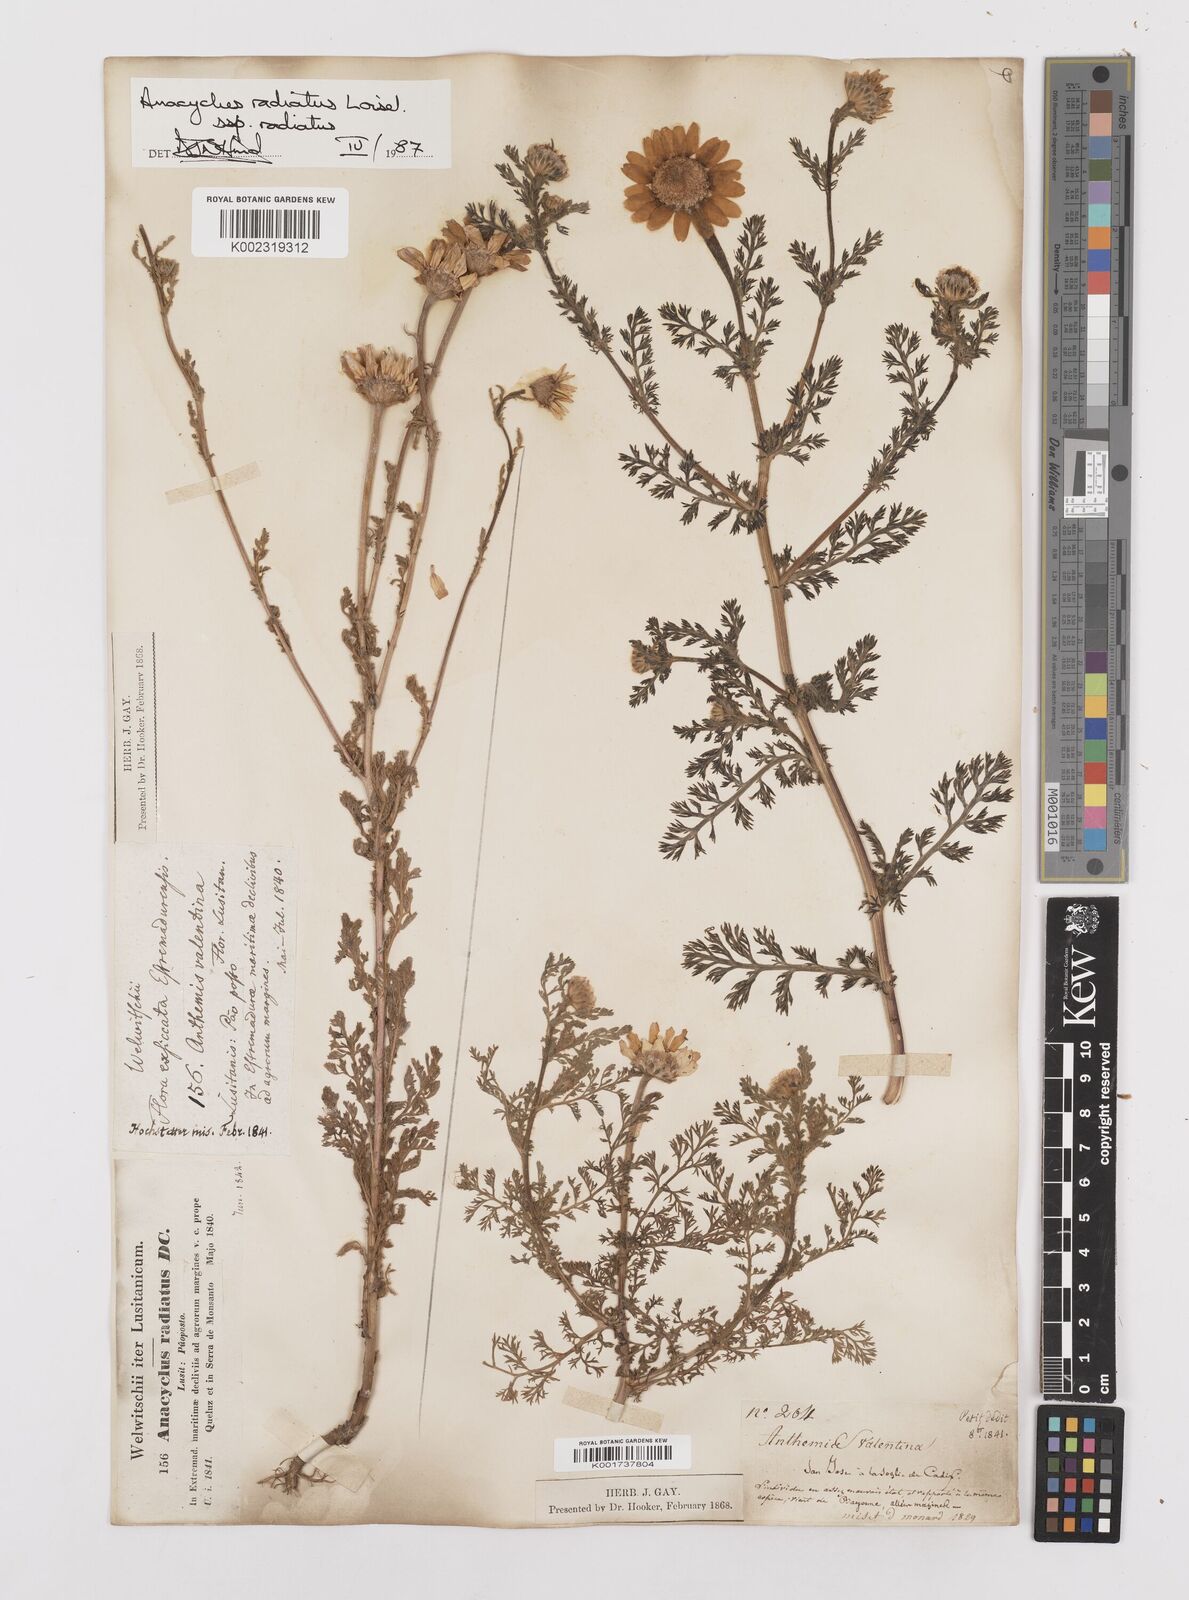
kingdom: Plantae
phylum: Tracheophyta
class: Magnoliopsida
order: Asterales
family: Asteraceae
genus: Anacyclus
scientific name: Anacyclus radiatus
